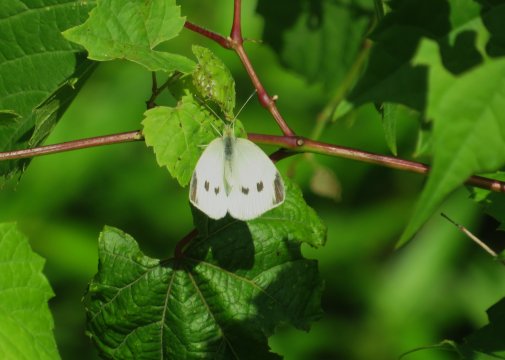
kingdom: Animalia
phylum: Arthropoda
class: Insecta
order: Lepidoptera
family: Pieridae
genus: Pieris
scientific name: Pieris rapae
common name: Cabbage White
